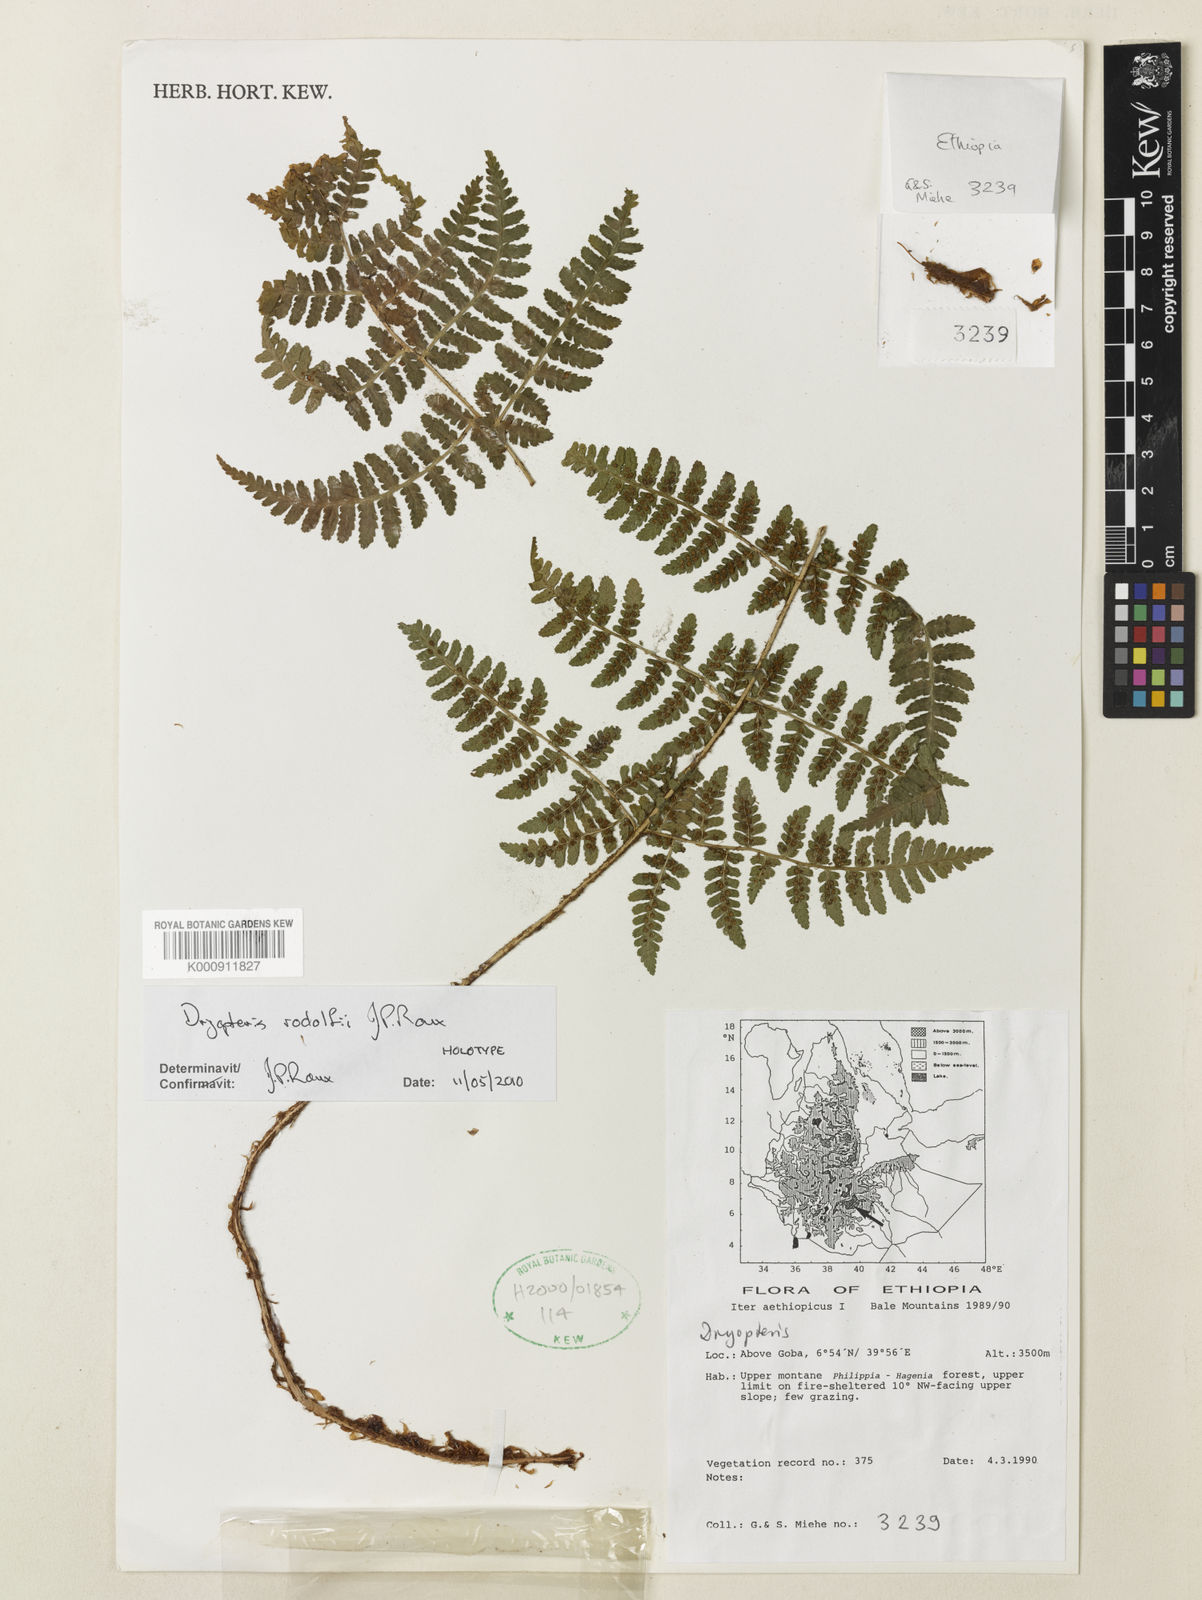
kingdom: Plantae
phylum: Tracheophyta
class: Polypodiopsida
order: Polypodiales
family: Dryopteridaceae
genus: Dryopteris
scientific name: Dryopteris rodolfii
